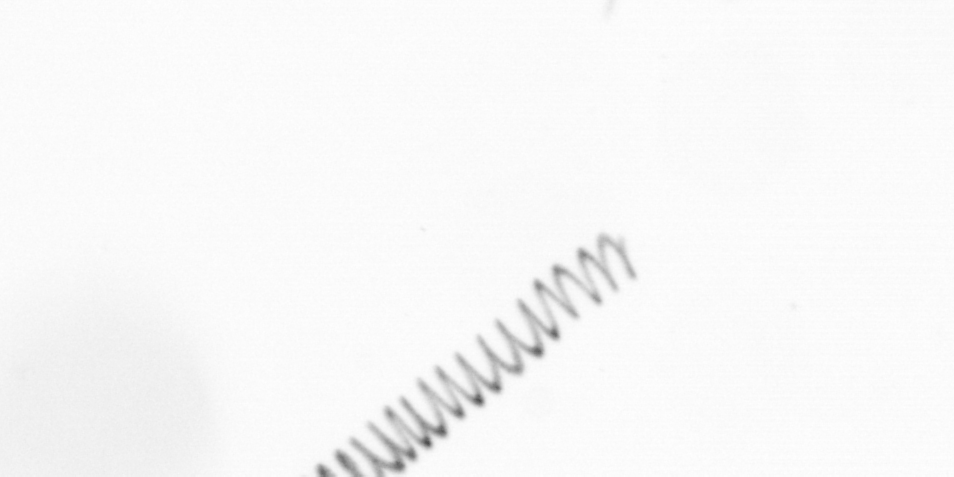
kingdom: Chromista
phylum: Ochrophyta
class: Bacillariophyceae
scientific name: Bacillariophyceae
